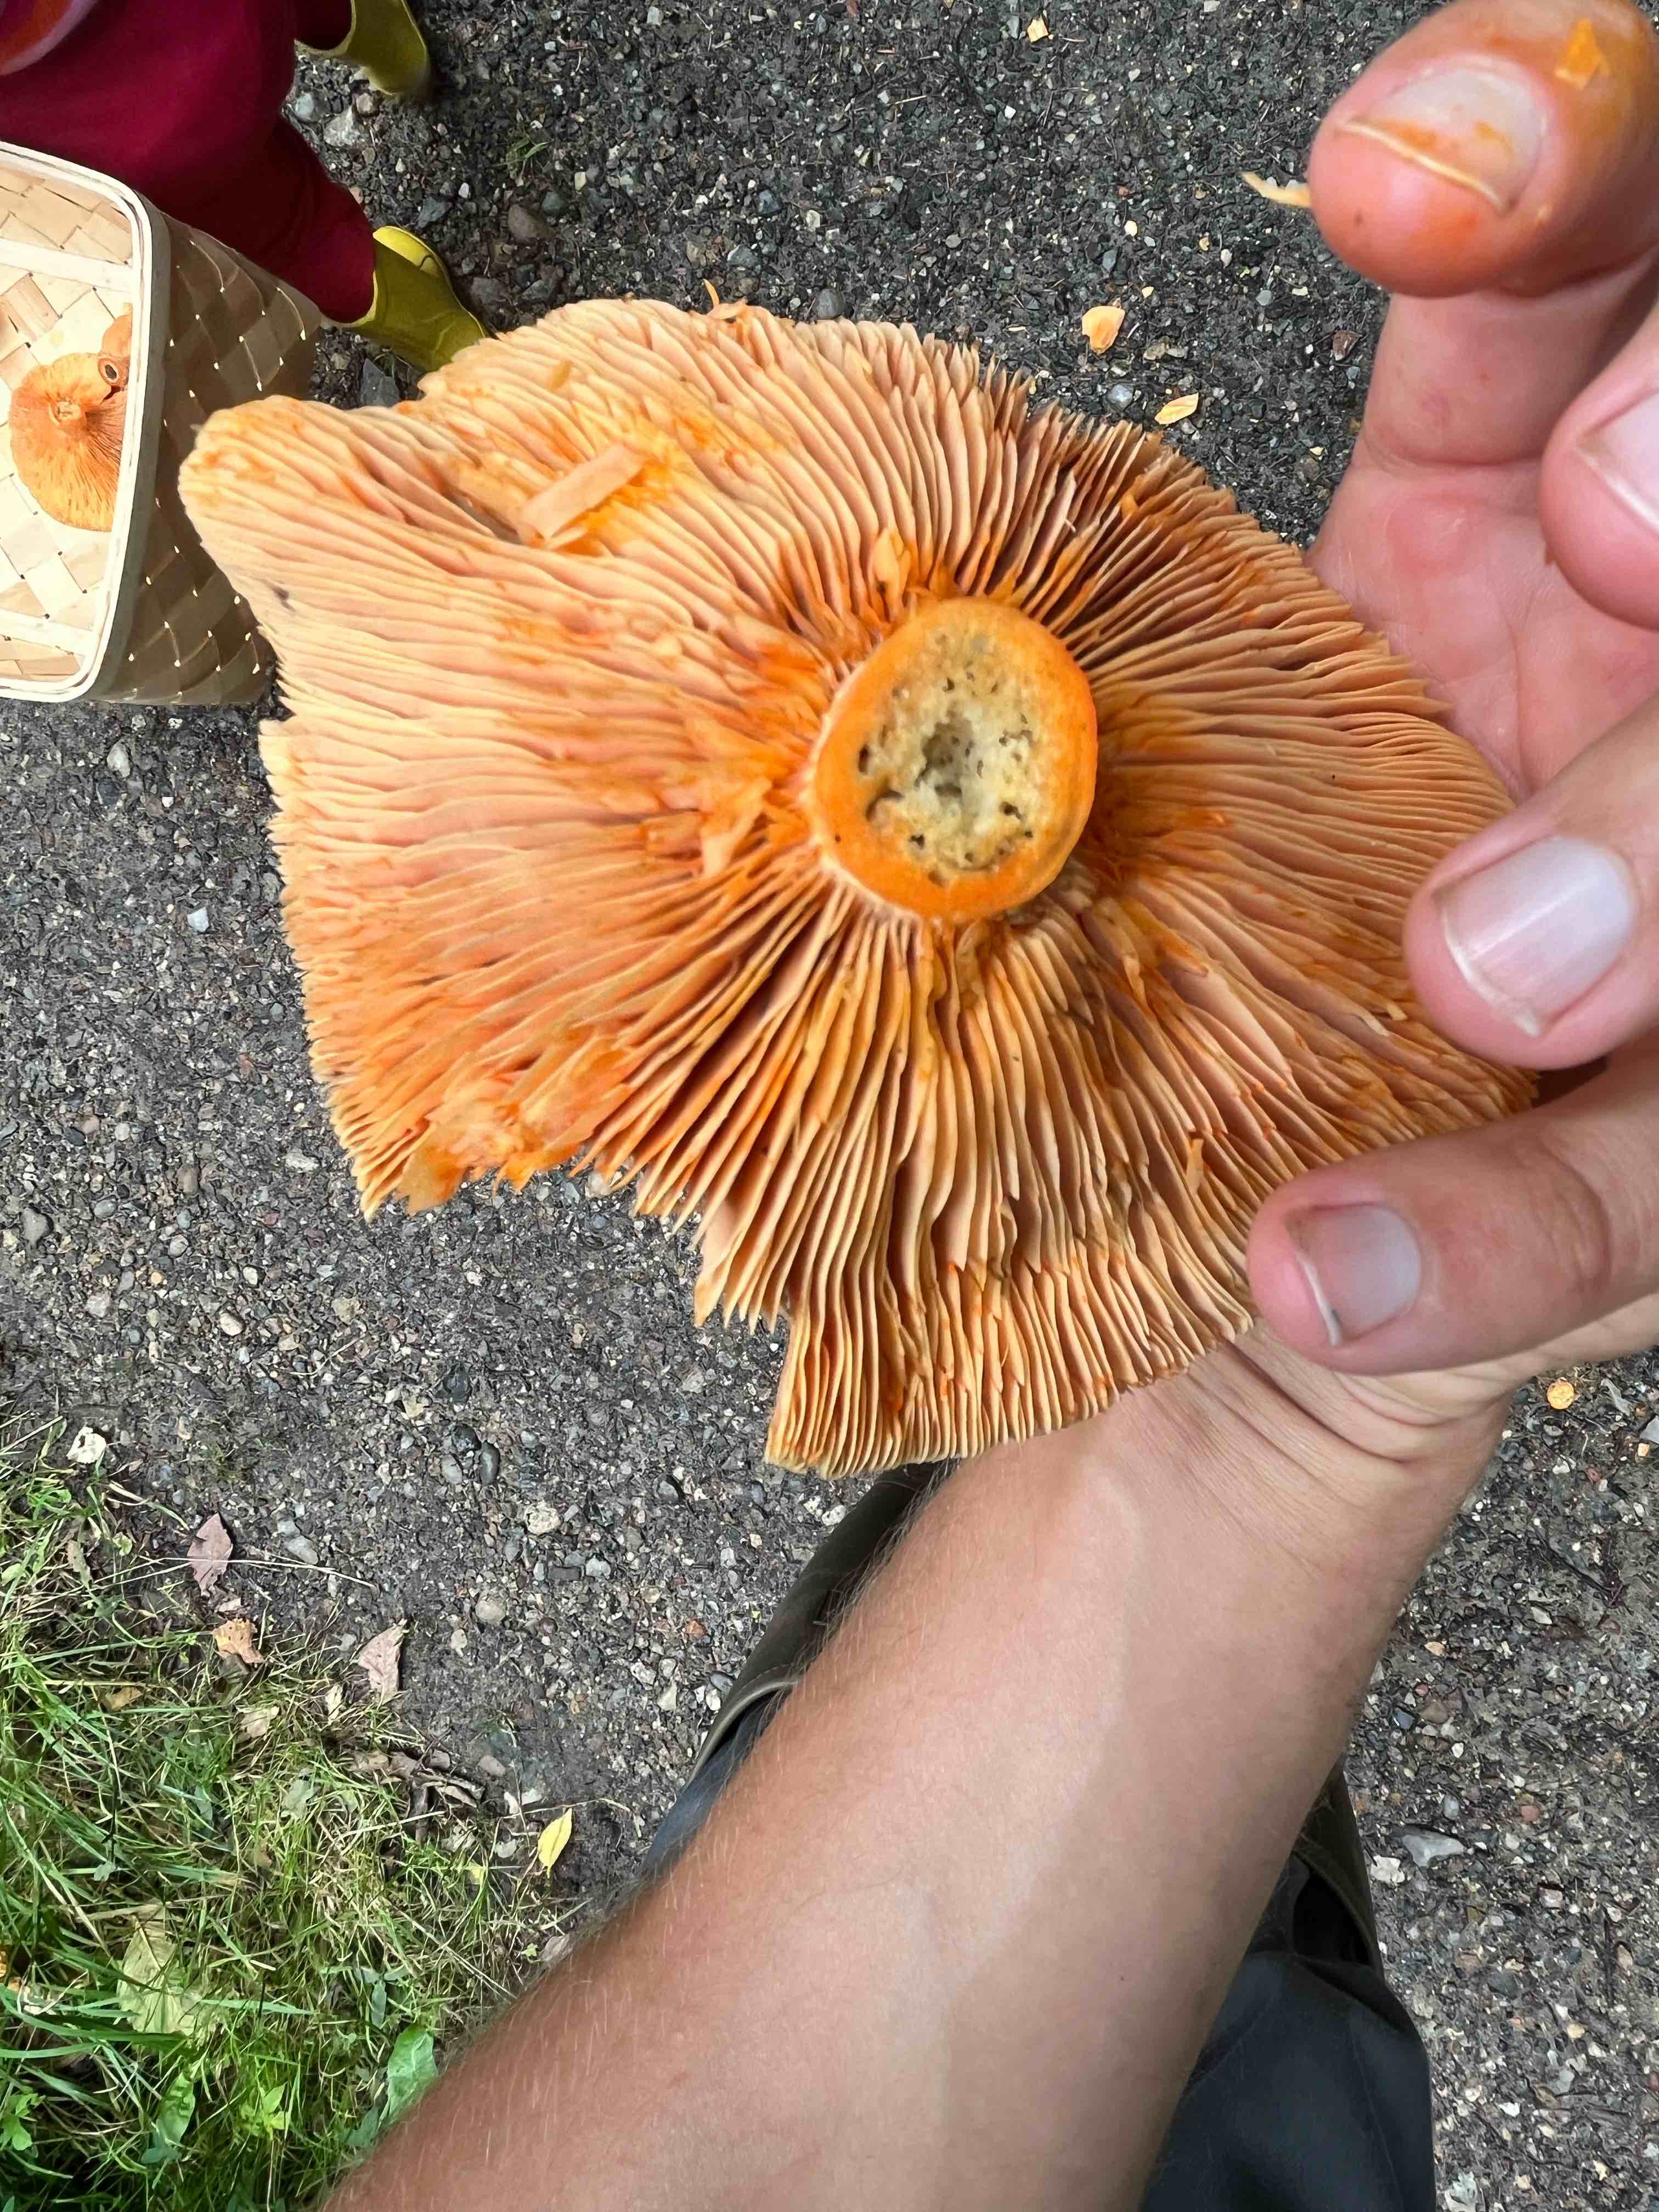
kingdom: Fungi
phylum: Basidiomycota
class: Agaricomycetes
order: Russulales
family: Russulaceae
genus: Lactarius
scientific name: Lactarius deterrimus
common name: gran-mælkehat
